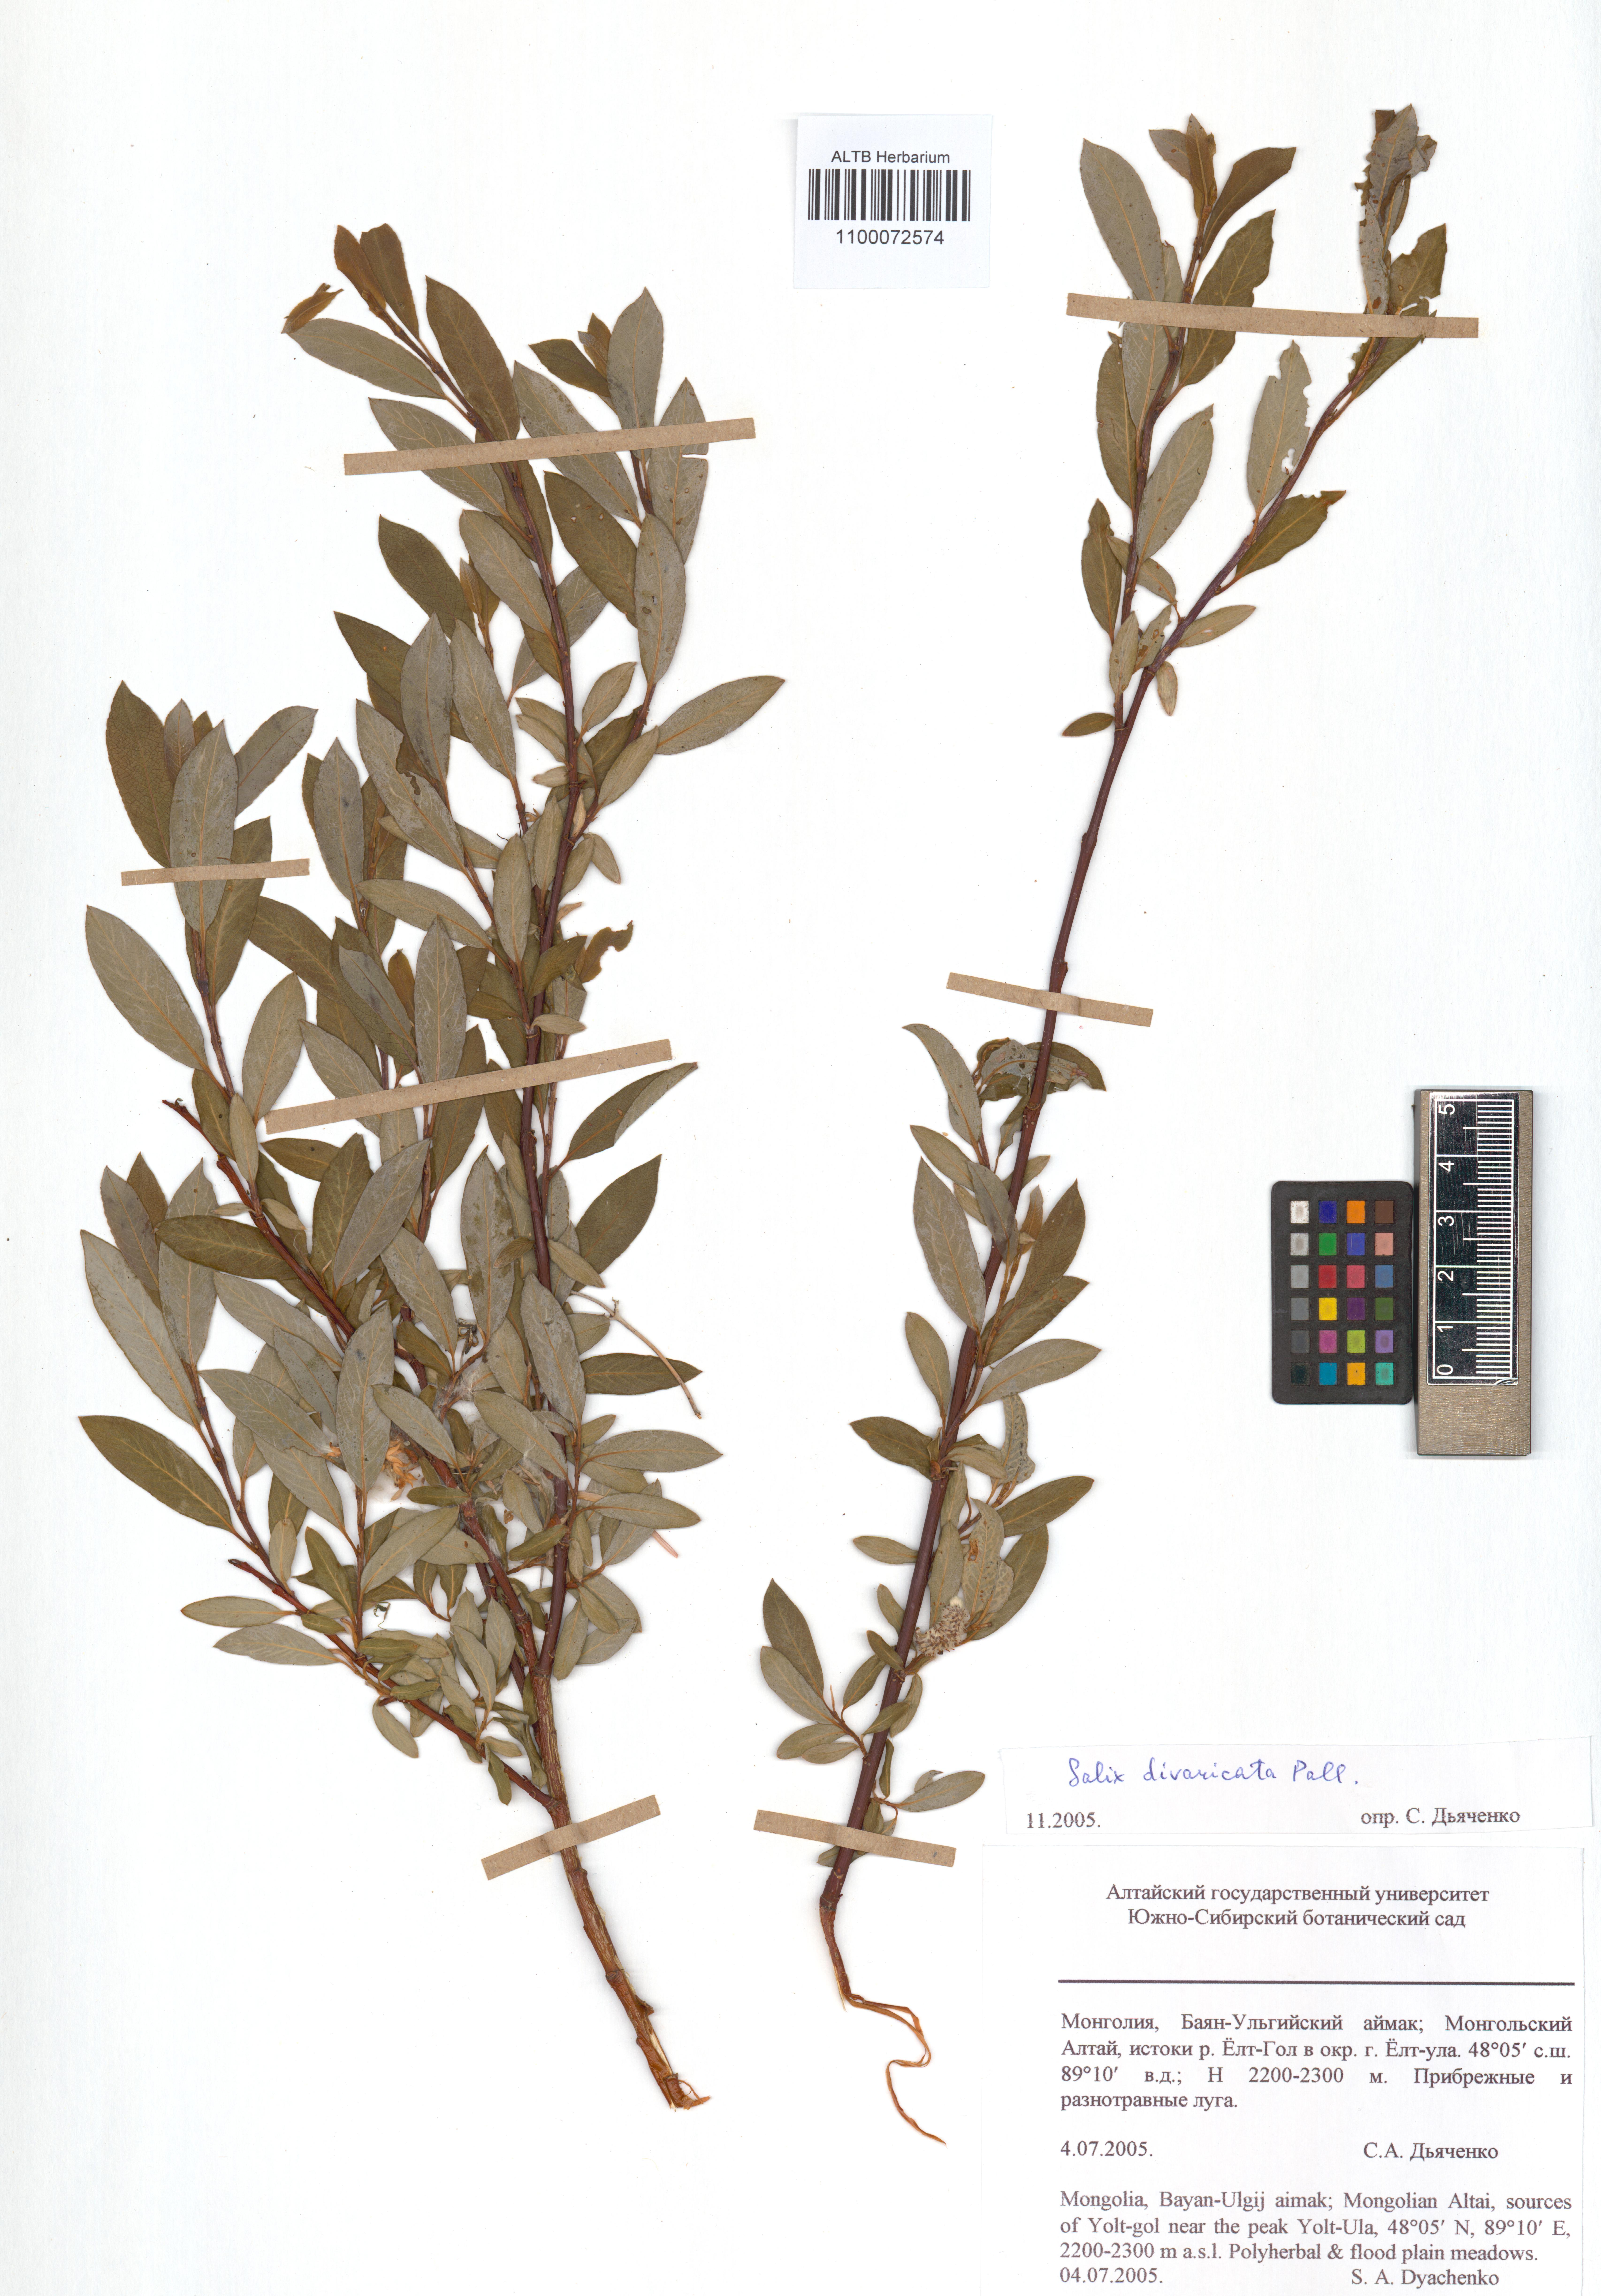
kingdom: Plantae
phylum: Tracheophyta
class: Magnoliopsida
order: Malpighiales
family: Salicaceae
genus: Salix
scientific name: Salix divaricata
